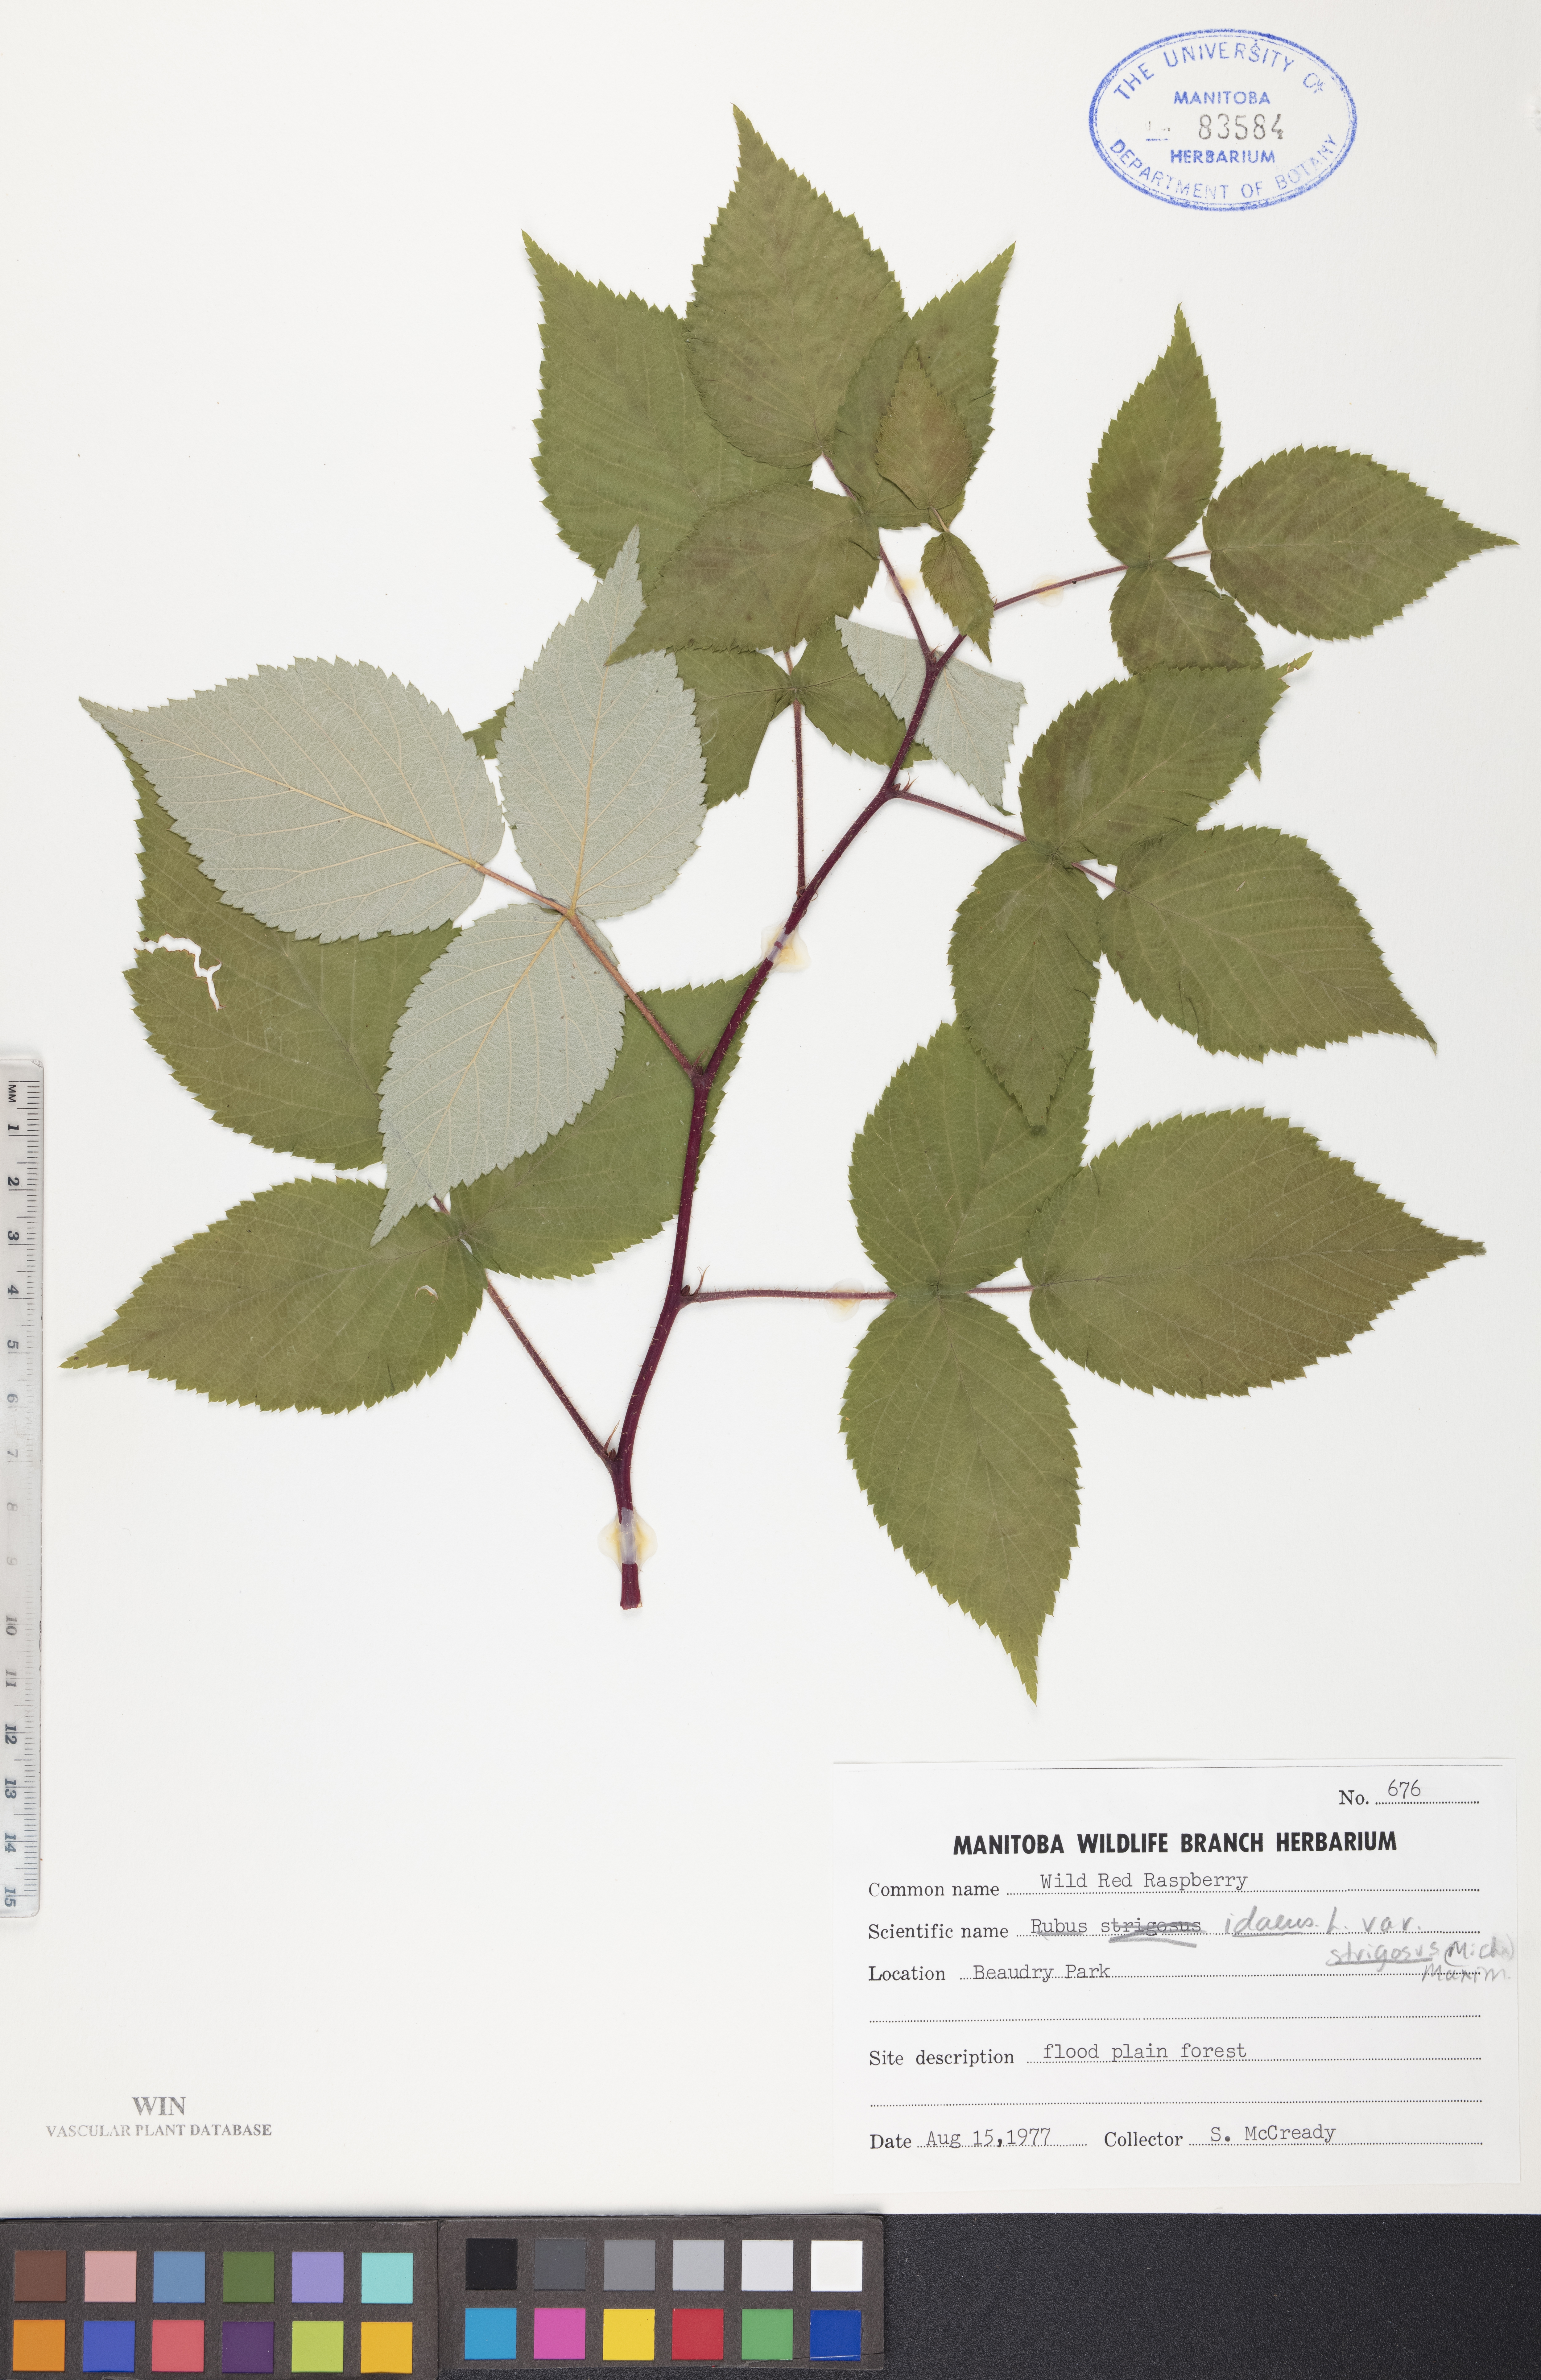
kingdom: Plantae
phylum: Tracheophyta
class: Magnoliopsida
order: Rosales
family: Rosaceae
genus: Rubus
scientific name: Rubus idaeus
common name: Raspberry
